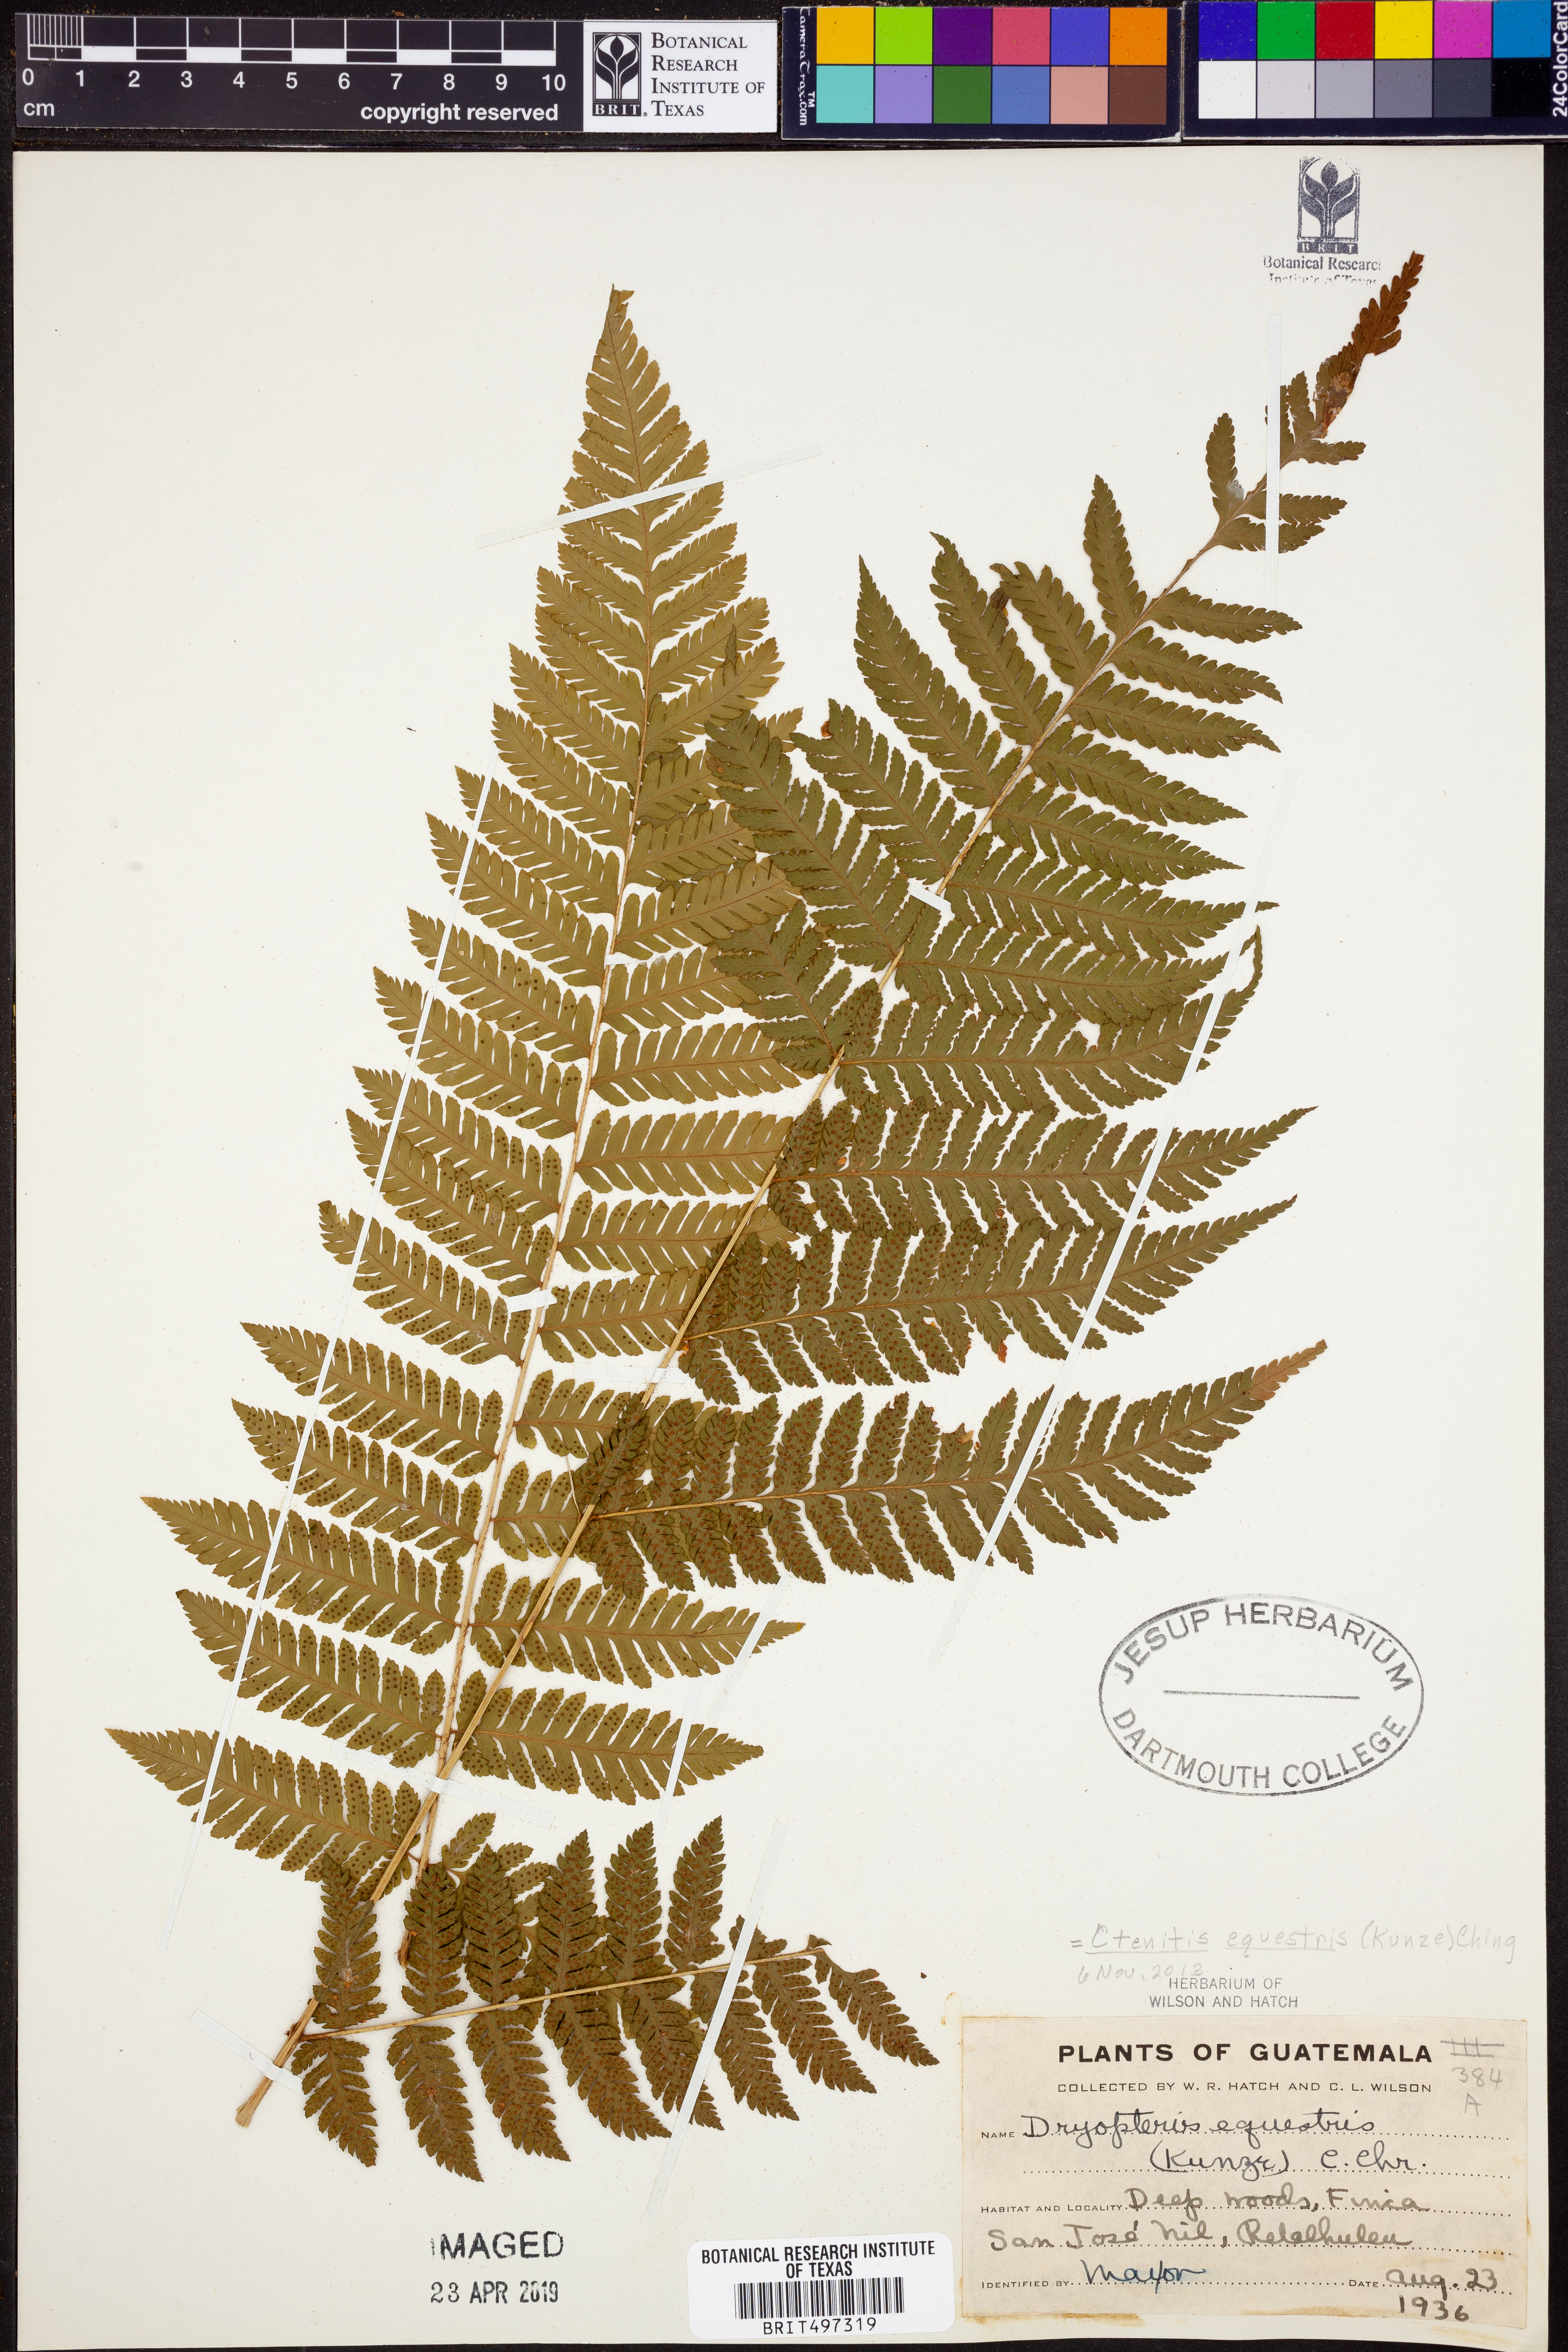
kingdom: Plantae
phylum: Tracheophyta
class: Polypodiopsida
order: Polypodiales
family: Dryopteridaceae
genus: Ctenitis
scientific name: Ctenitis equestris
